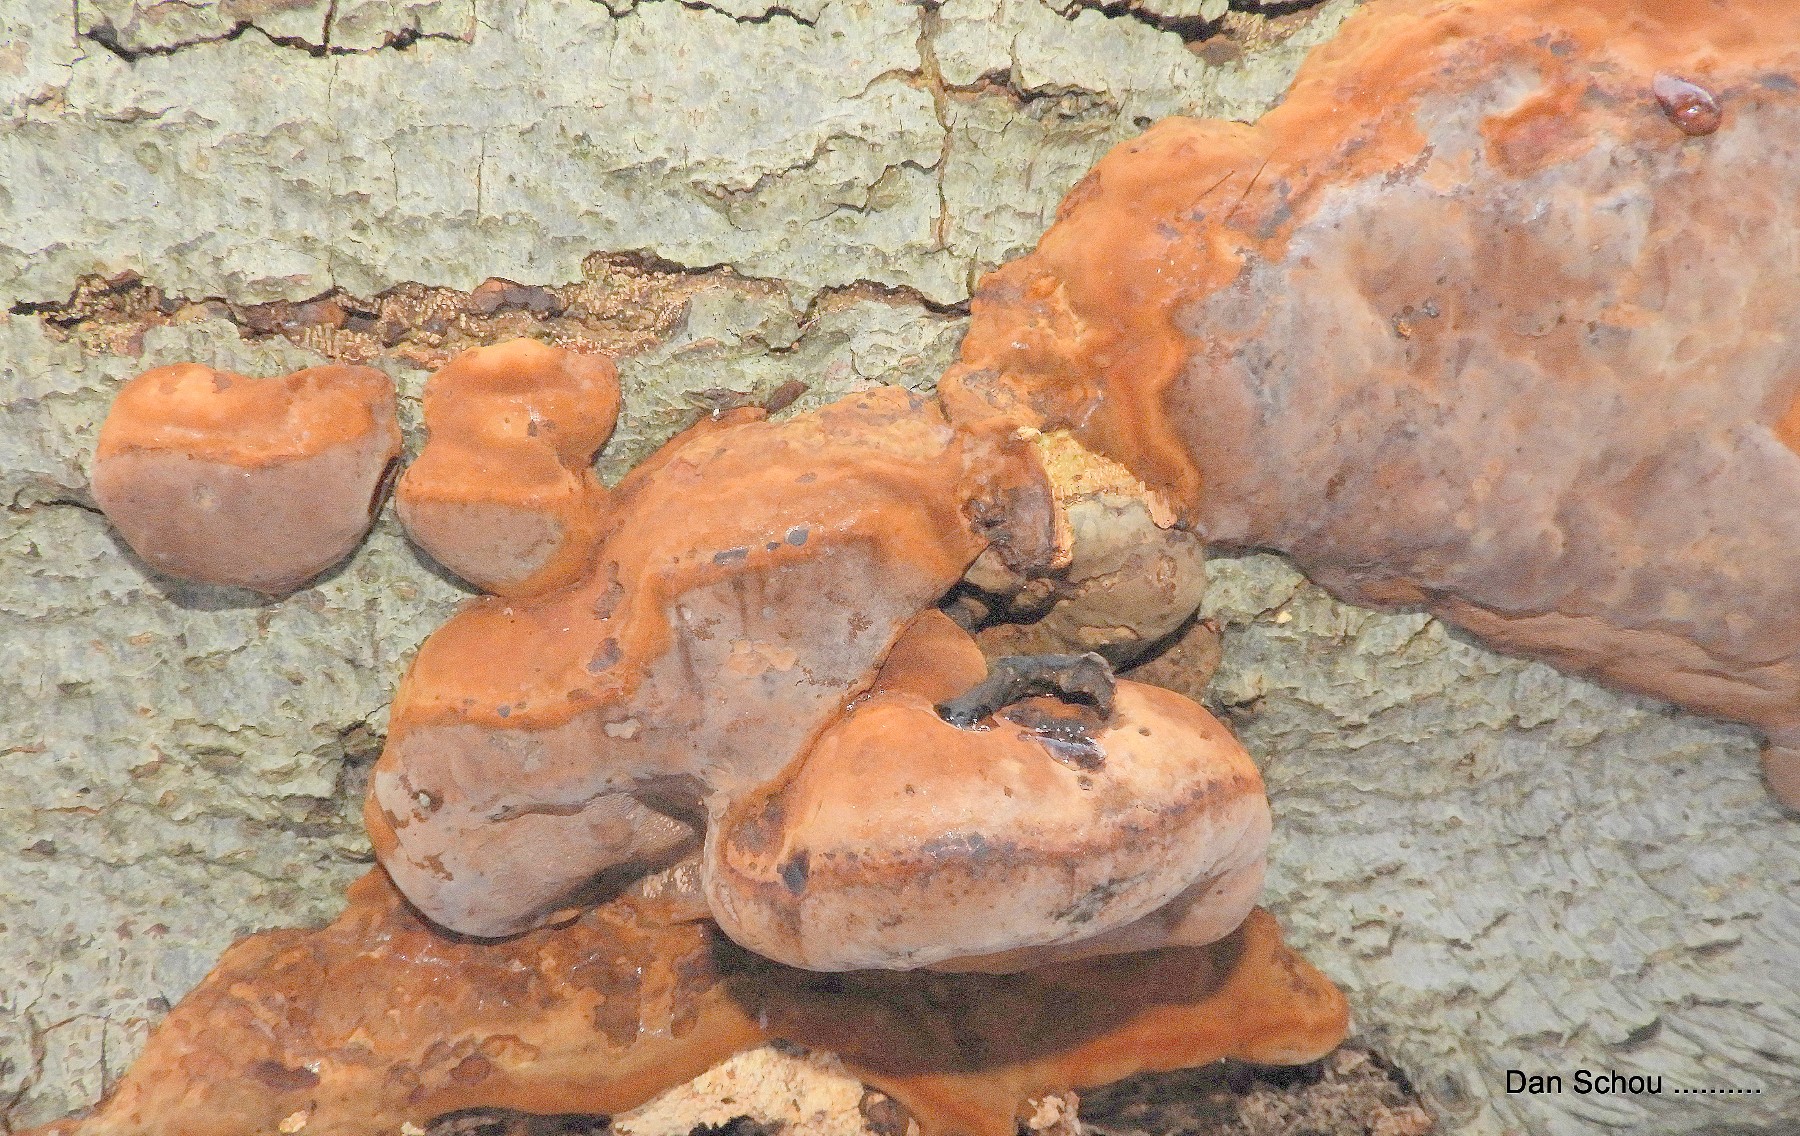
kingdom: Fungi
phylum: Basidiomycota
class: Agaricomycetes
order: Polyporales
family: Polyporaceae
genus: Fomes
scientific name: Fomes fomentarius
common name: tøndersvamp
